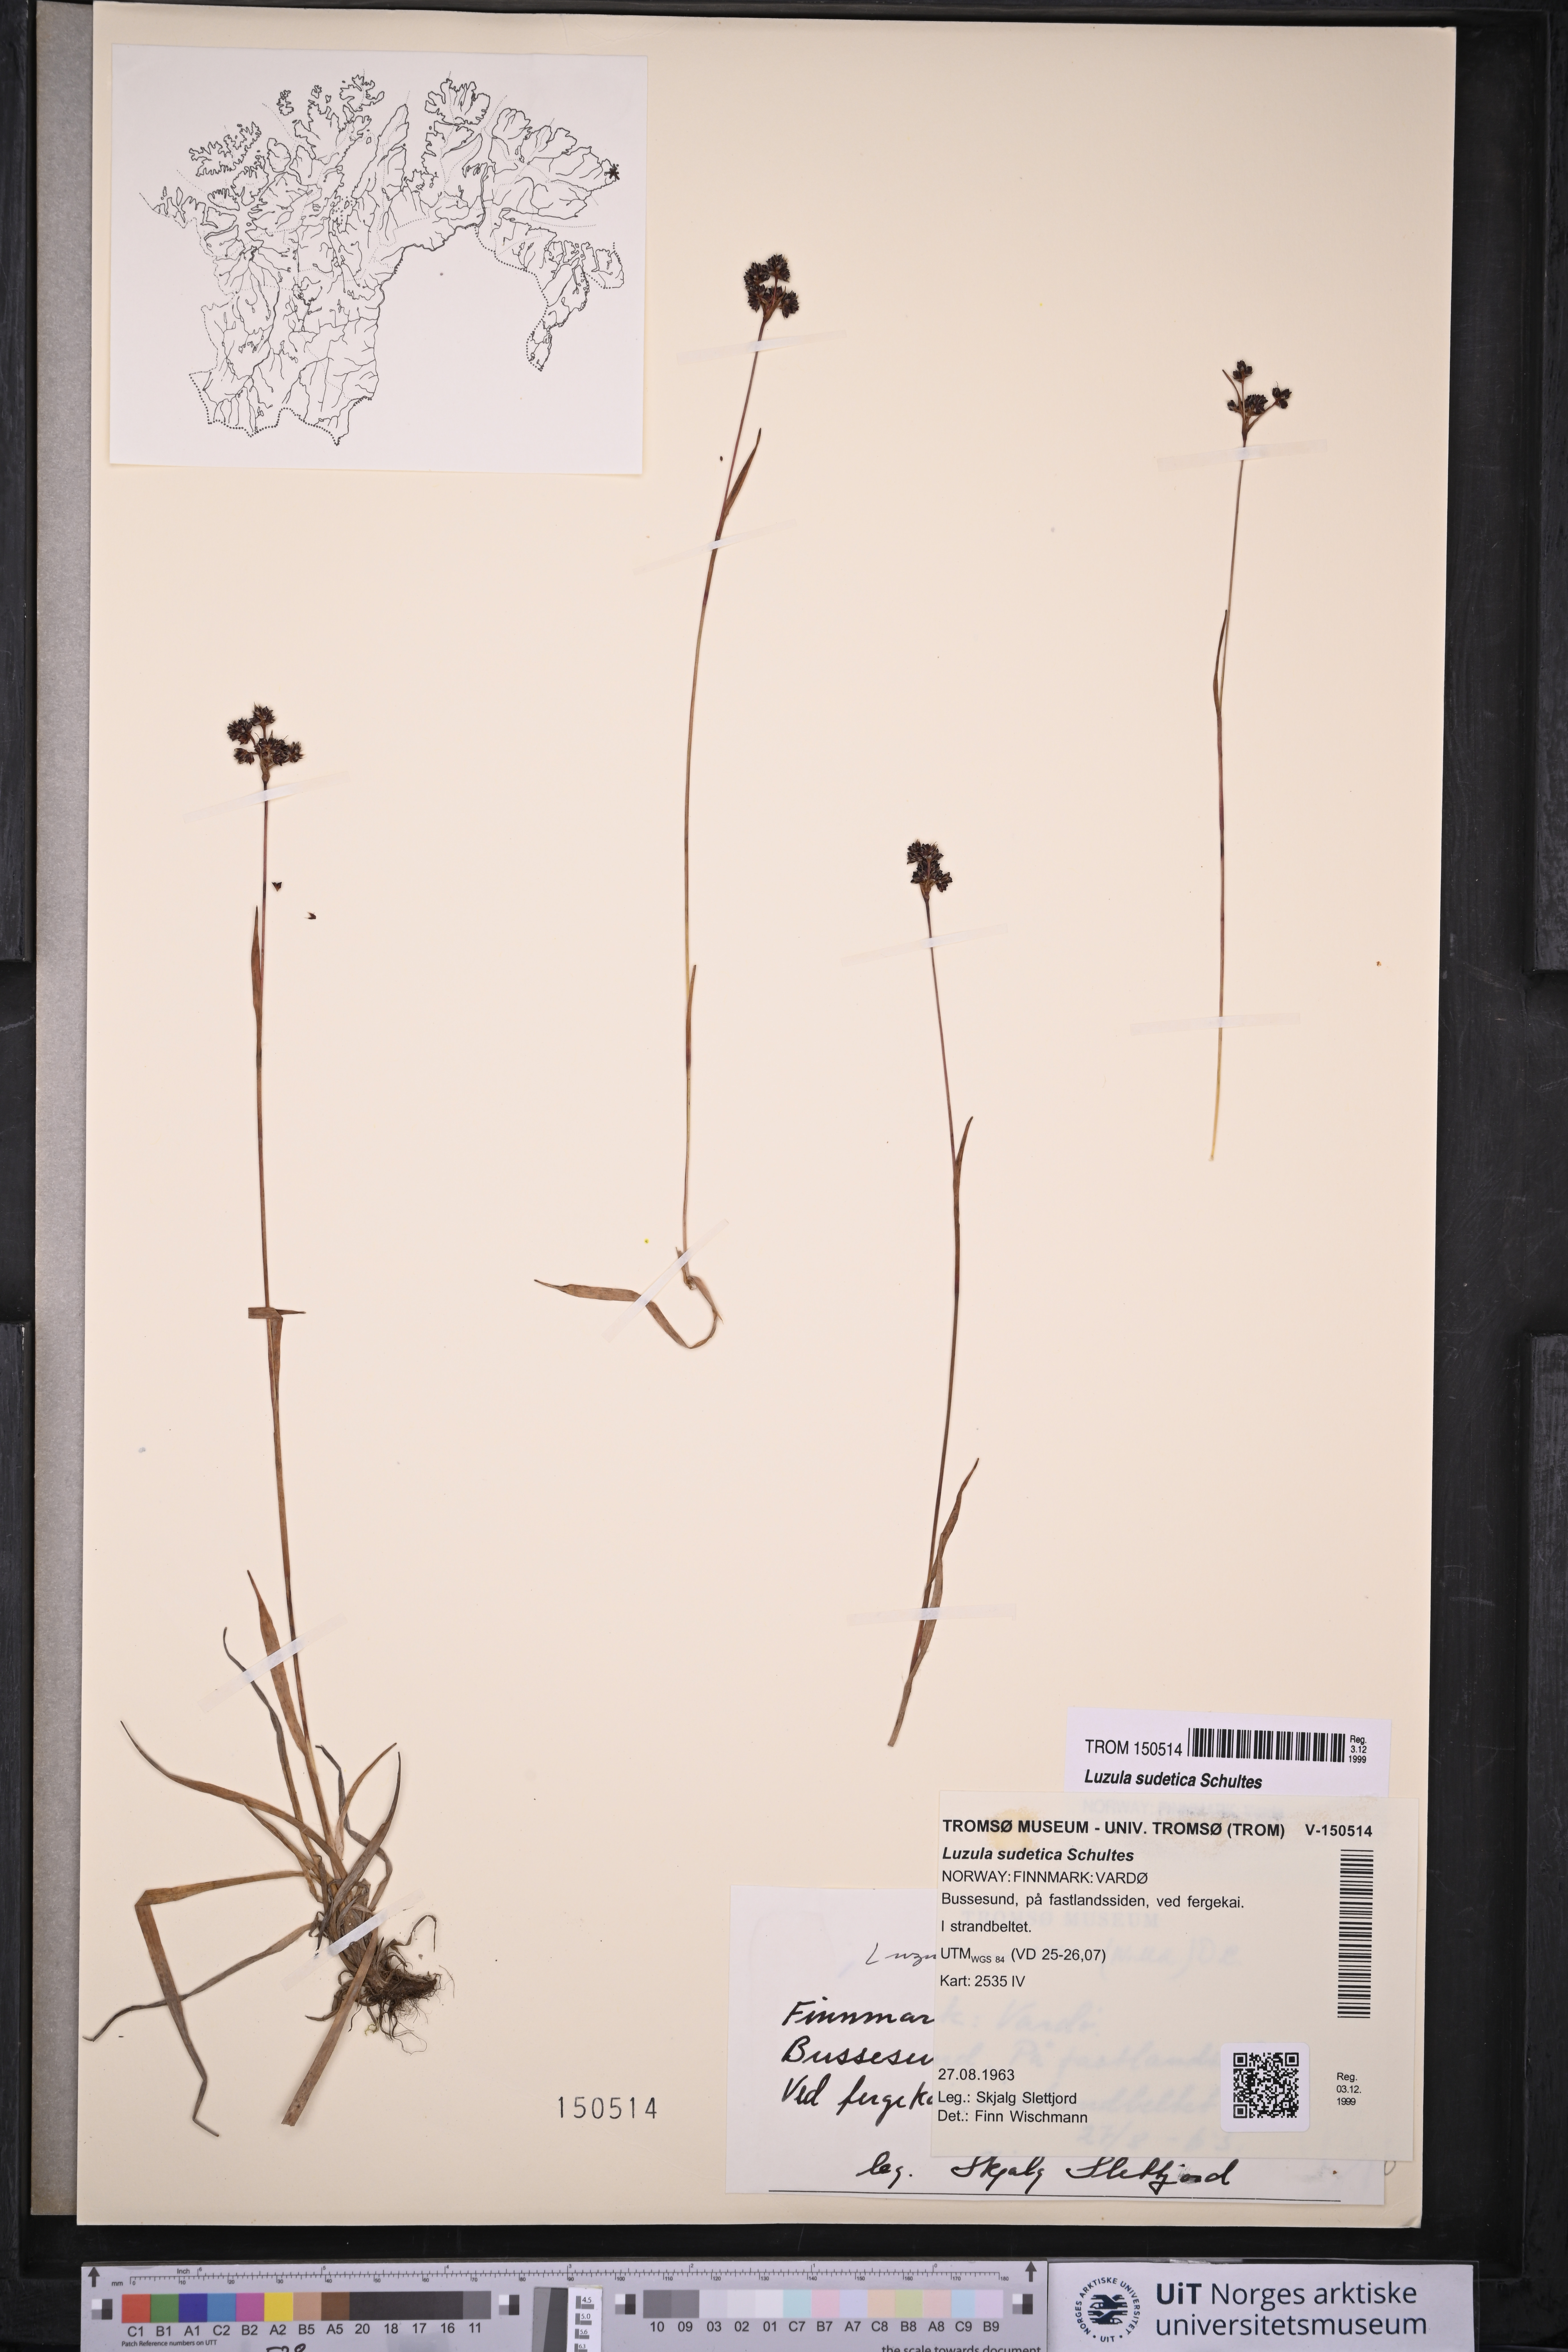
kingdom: Plantae
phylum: Tracheophyta
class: Liliopsida
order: Poales
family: Juncaceae
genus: Luzula
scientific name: Luzula sudetica
